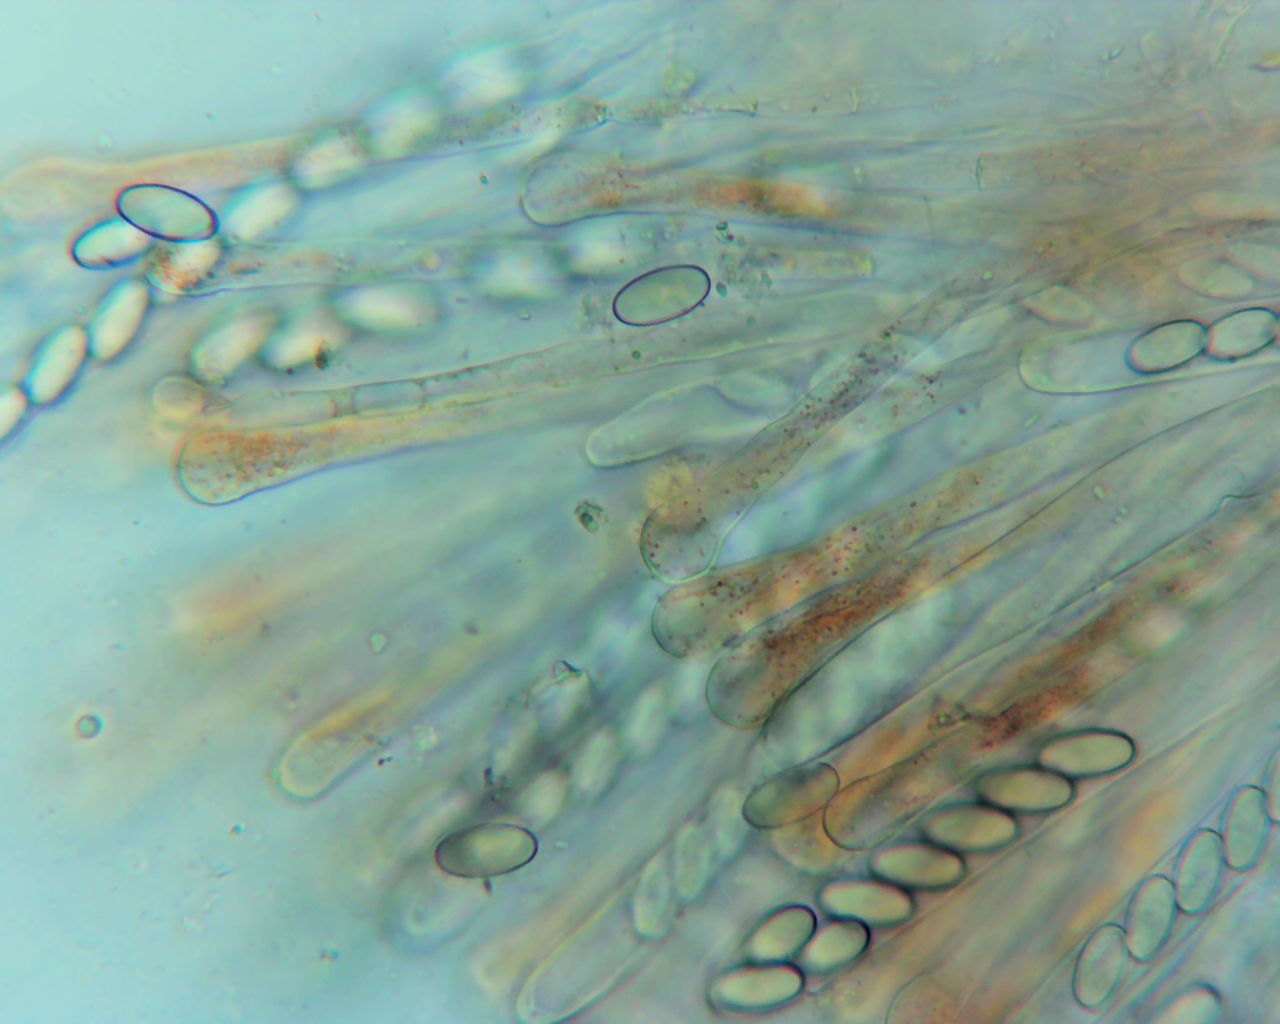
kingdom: Fungi
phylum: Ascomycota
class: Pezizomycetes
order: Pezizales
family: Pyronemataceae
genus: Cheilymenia
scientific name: Cheilymenia granulata
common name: møgbæger
